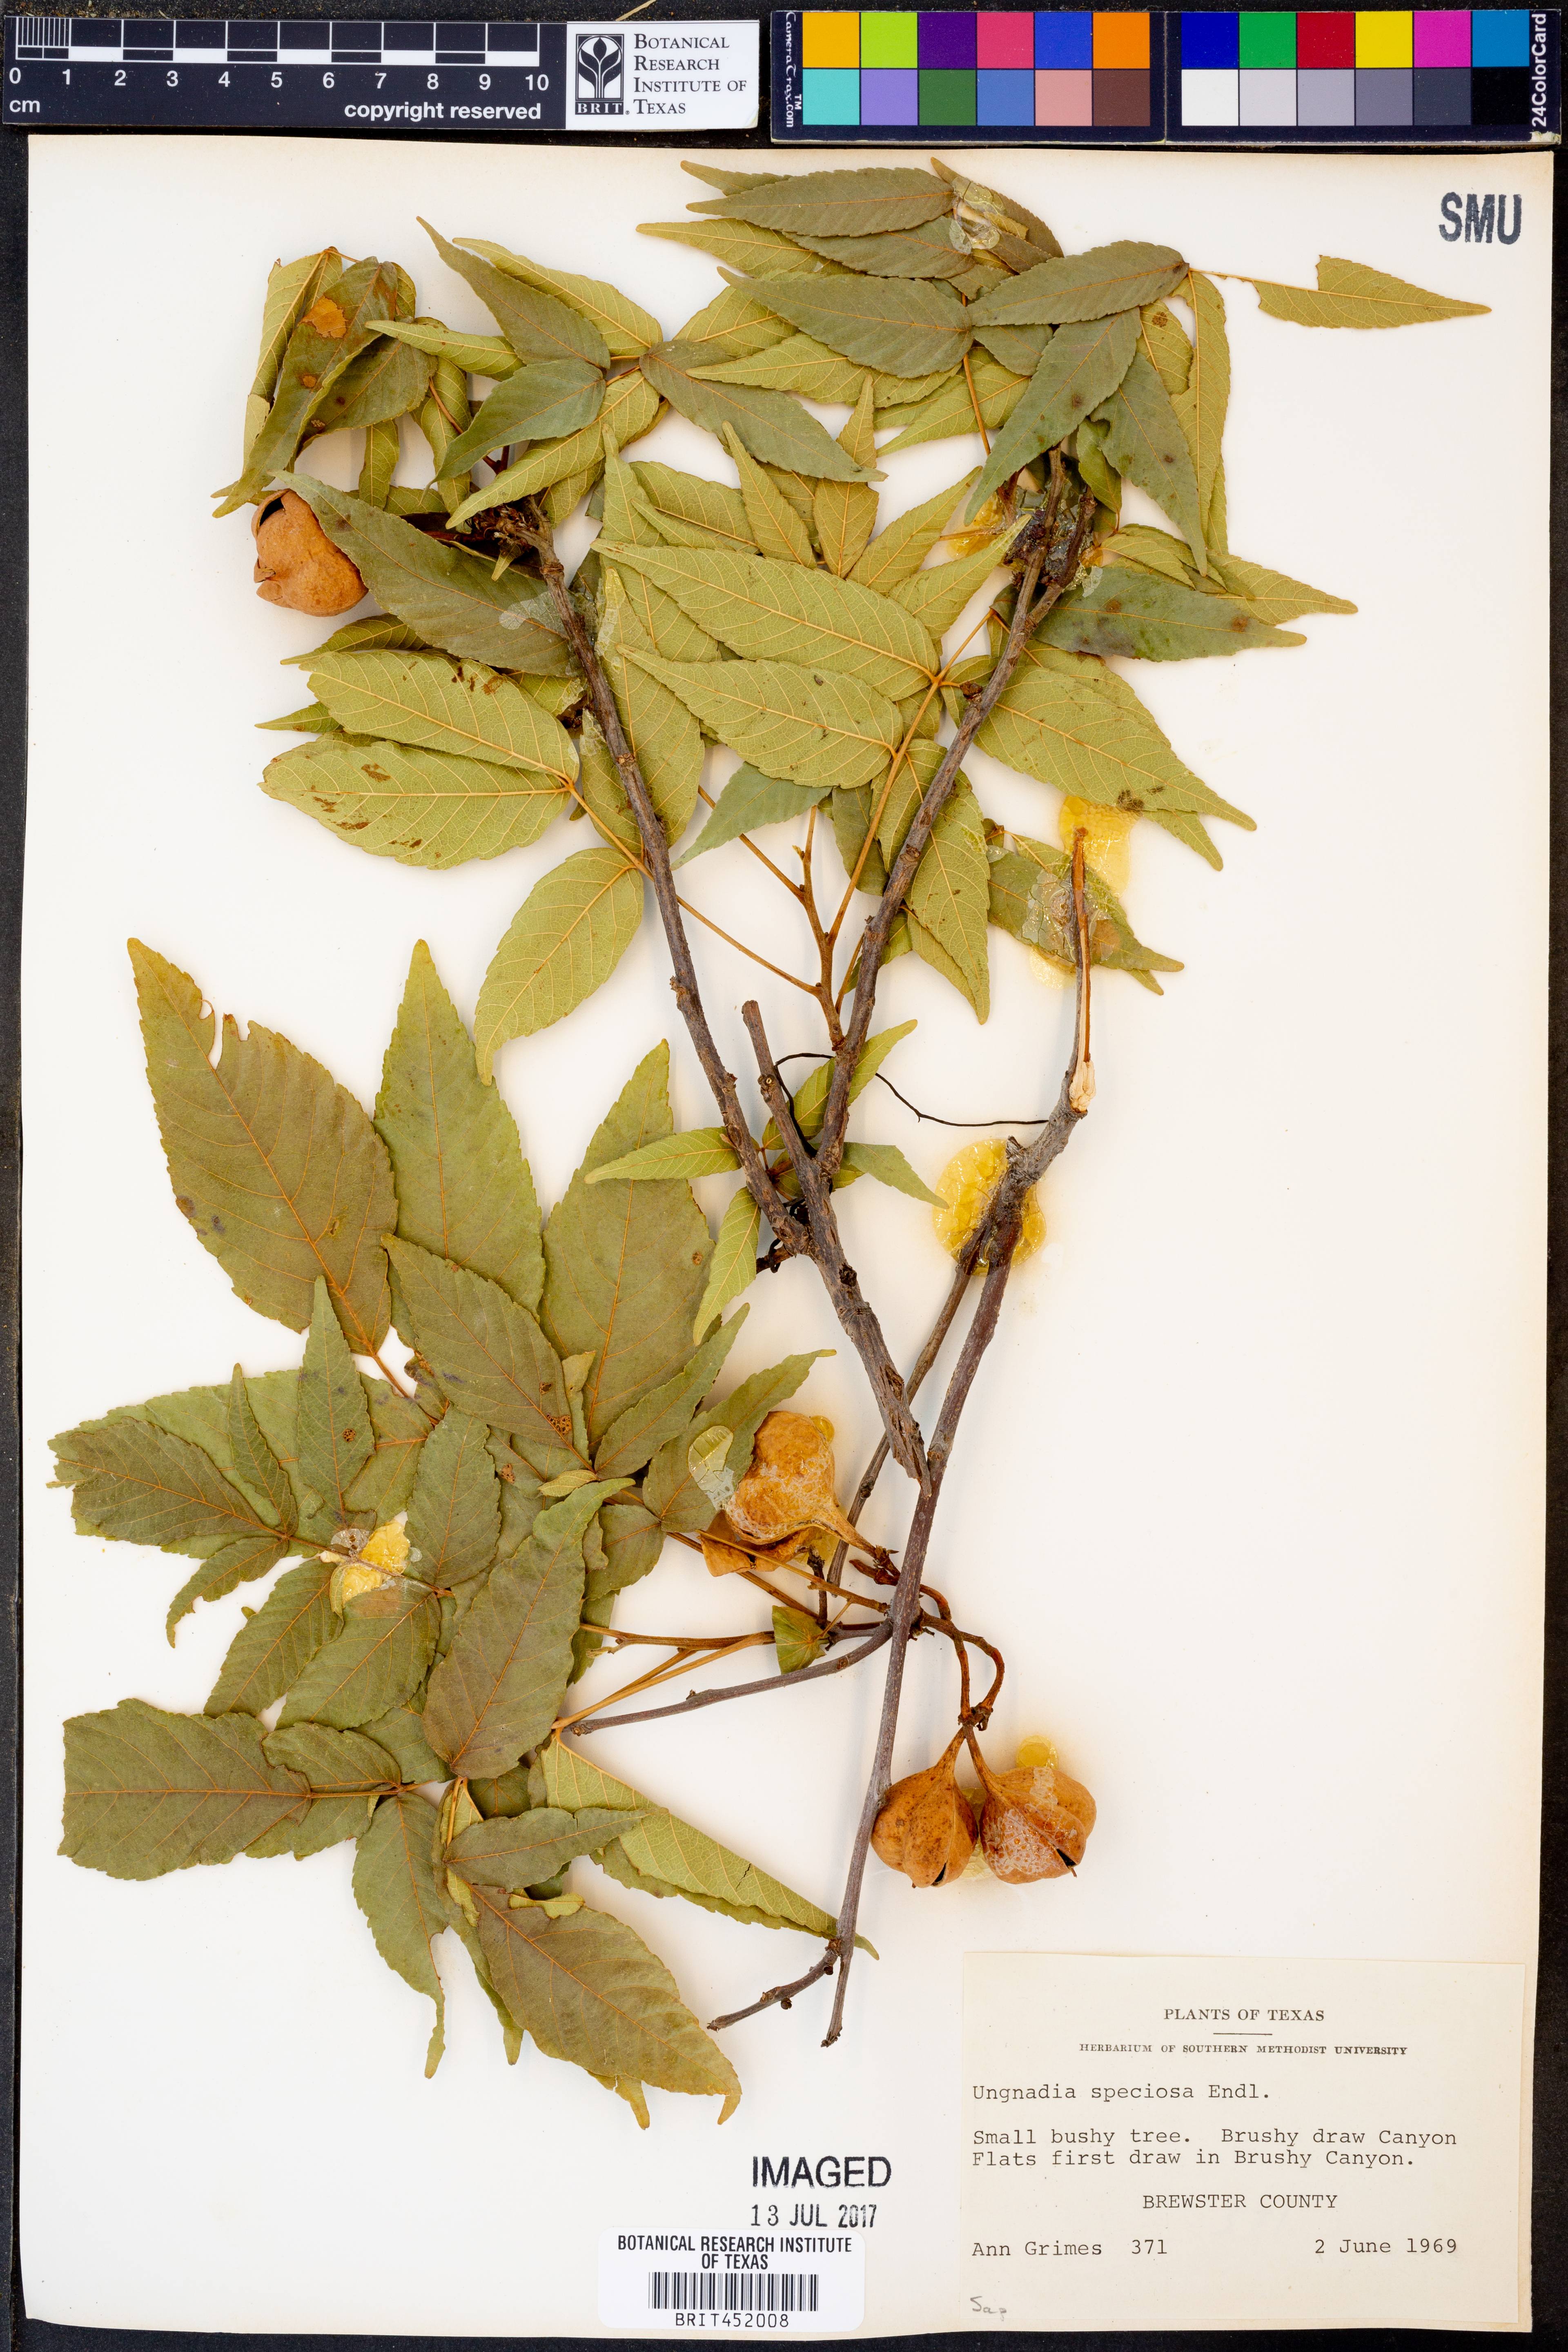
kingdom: Plantae
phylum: Tracheophyta
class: Magnoliopsida
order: Sapindales
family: Sapindaceae
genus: Ungnadia
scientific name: Ungnadia speciosa
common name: Texas-buckeye
